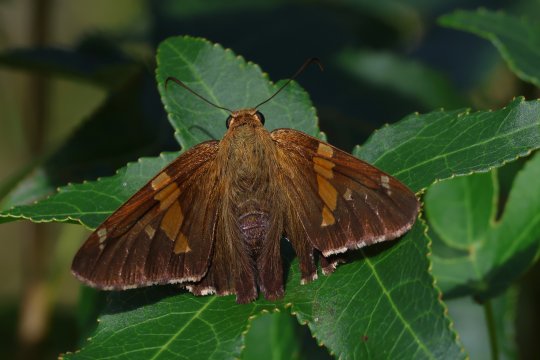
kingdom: Animalia
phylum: Arthropoda
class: Insecta
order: Lepidoptera
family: Hesperiidae
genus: Epargyreus
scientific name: Epargyreus clarus
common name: Silver-spotted Skipper
